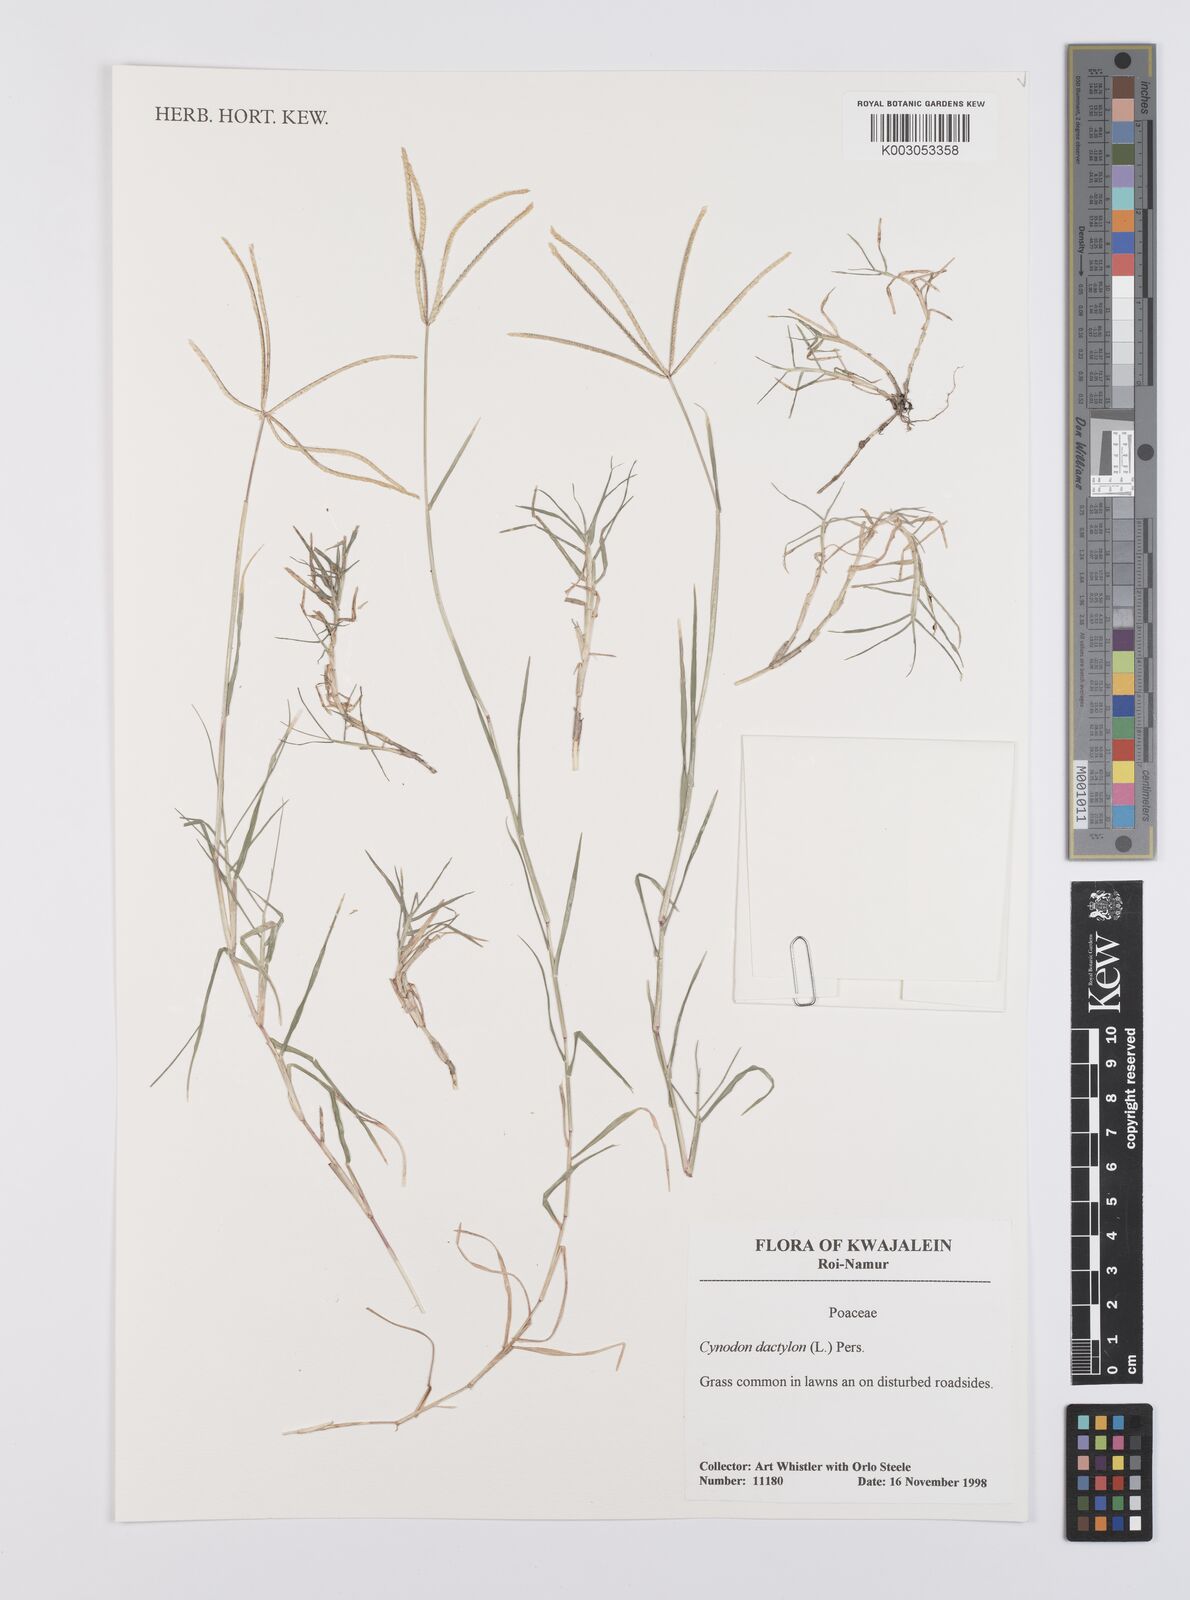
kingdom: Plantae
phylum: Tracheophyta
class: Liliopsida
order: Poales
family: Poaceae
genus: Cynodon
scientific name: Cynodon dactylon
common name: Bermuda grass
